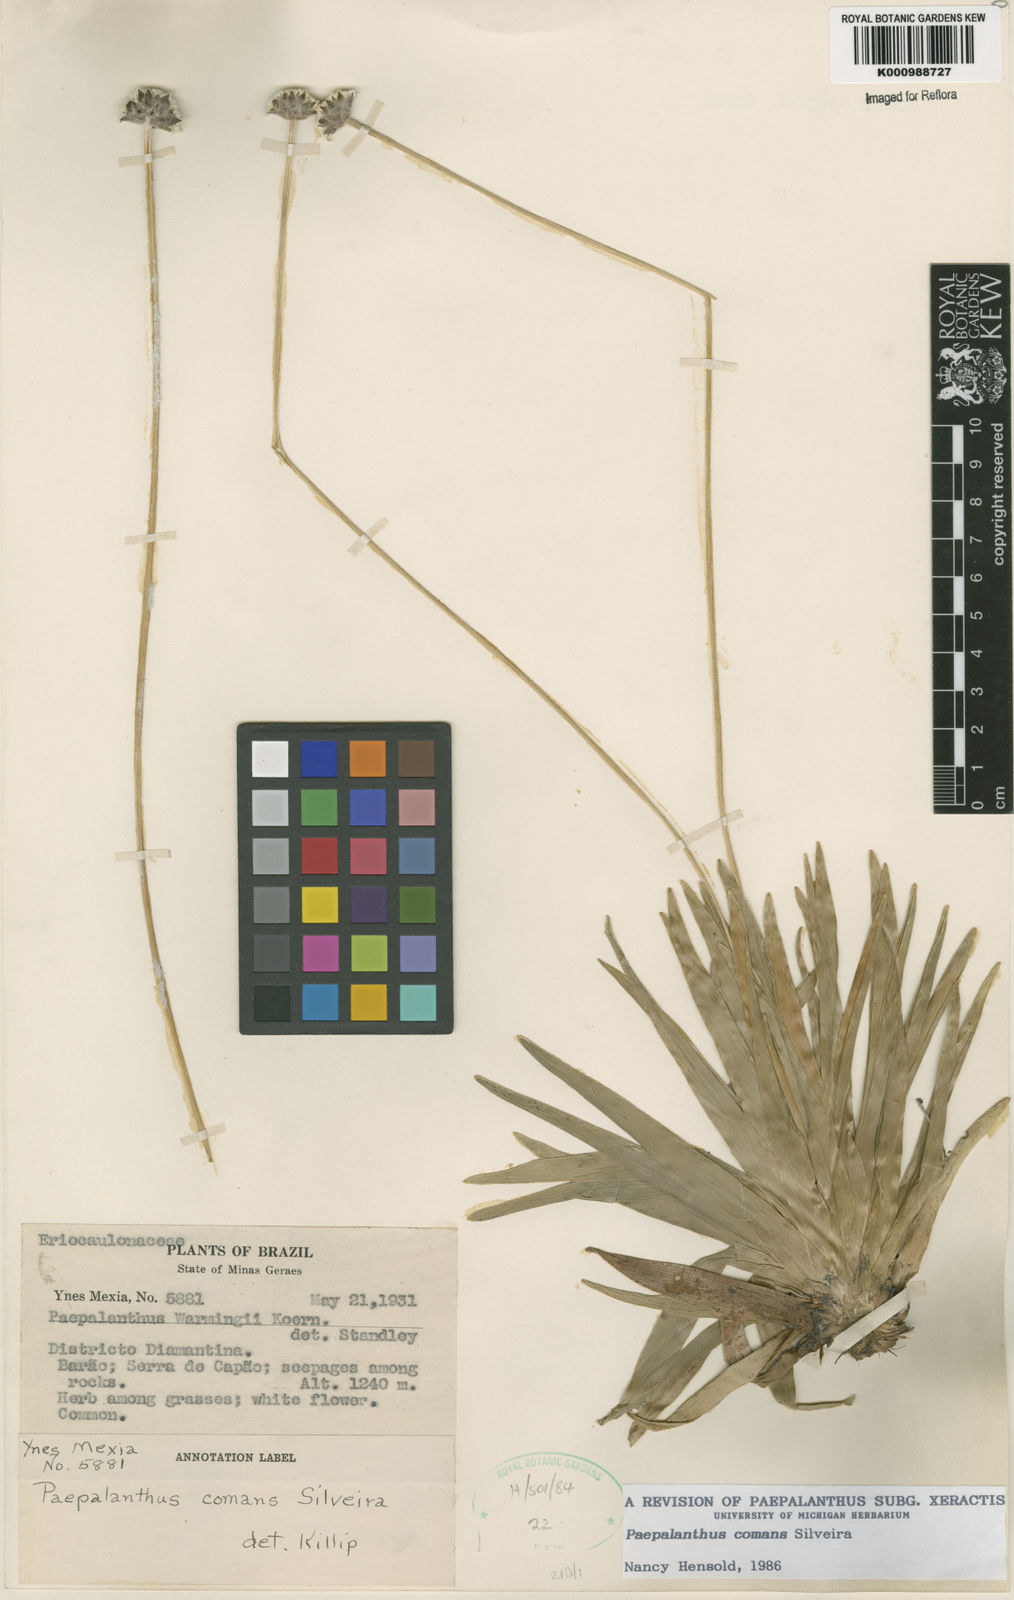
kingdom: Plantae
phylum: Tracheophyta
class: Liliopsida
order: Poales
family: Eriocaulaceae
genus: Paepalanthus
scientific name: Paepalanthus comans
